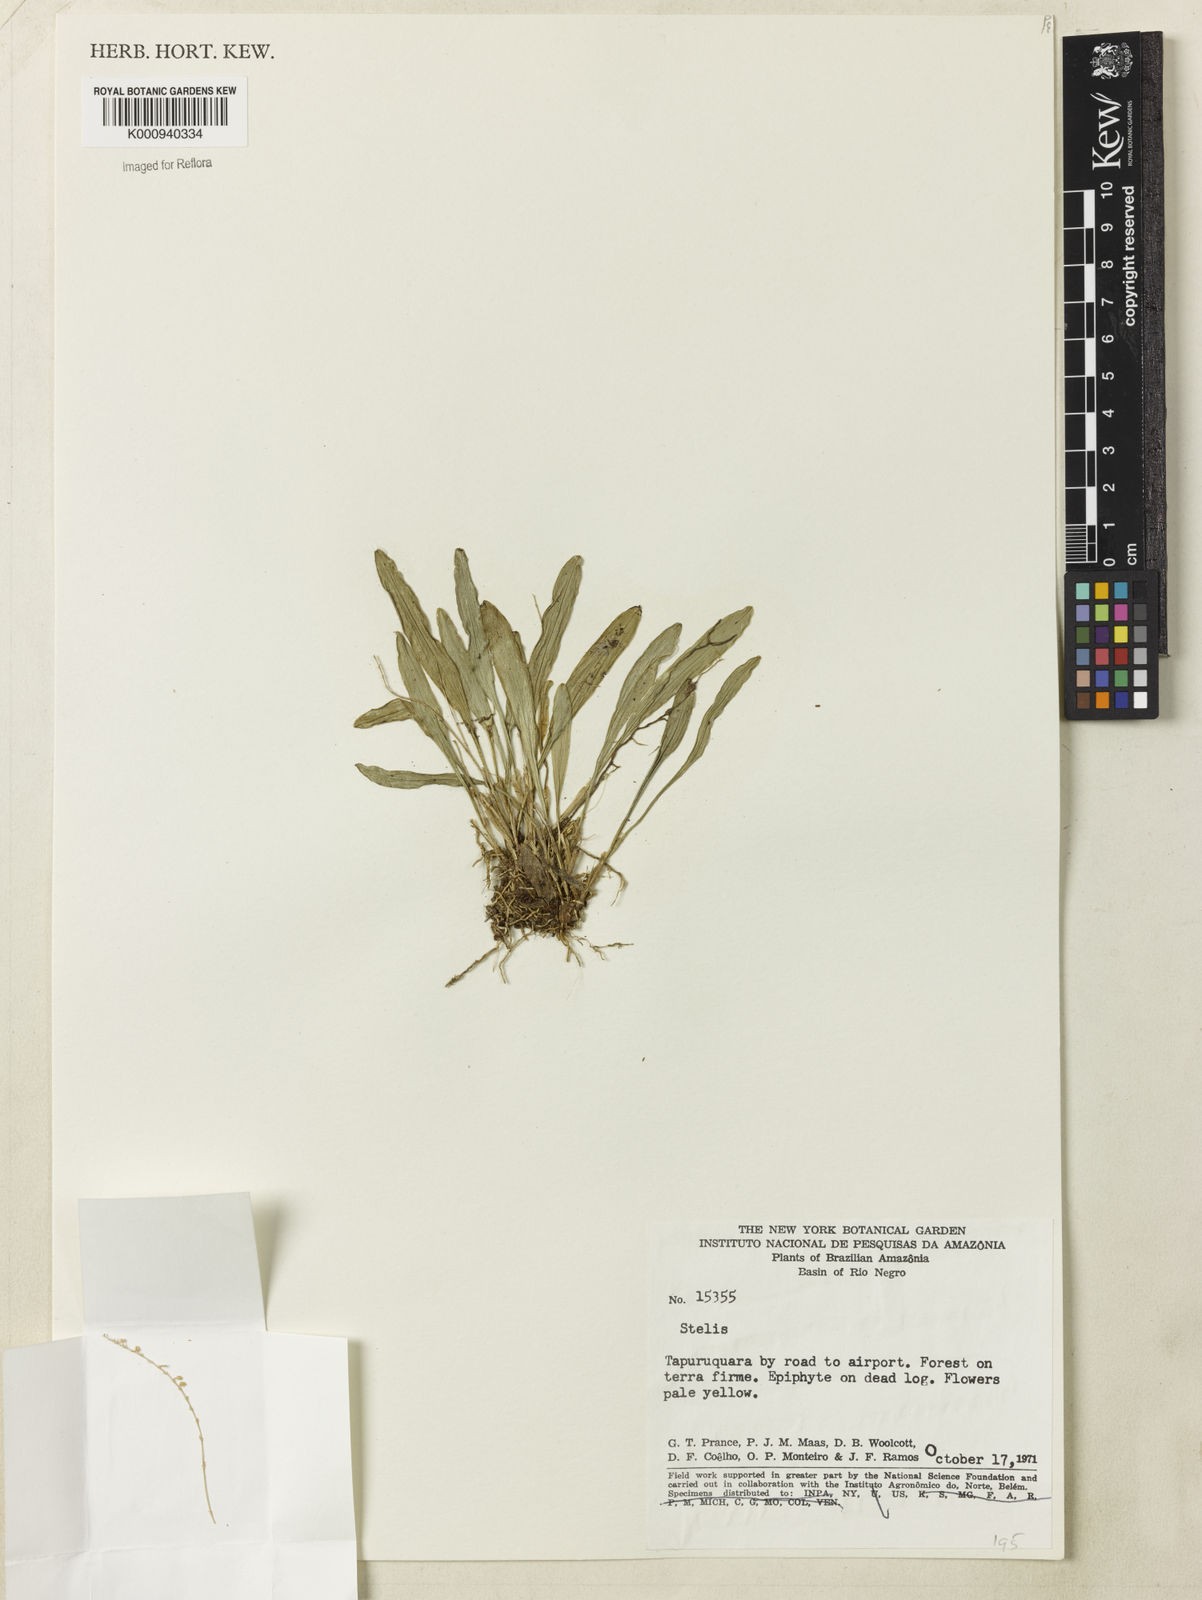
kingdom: Plantae
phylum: Tracheophyta
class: Liliopsida
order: Asparagales
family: Orchidaceae
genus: Stelis
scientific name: Stelis
